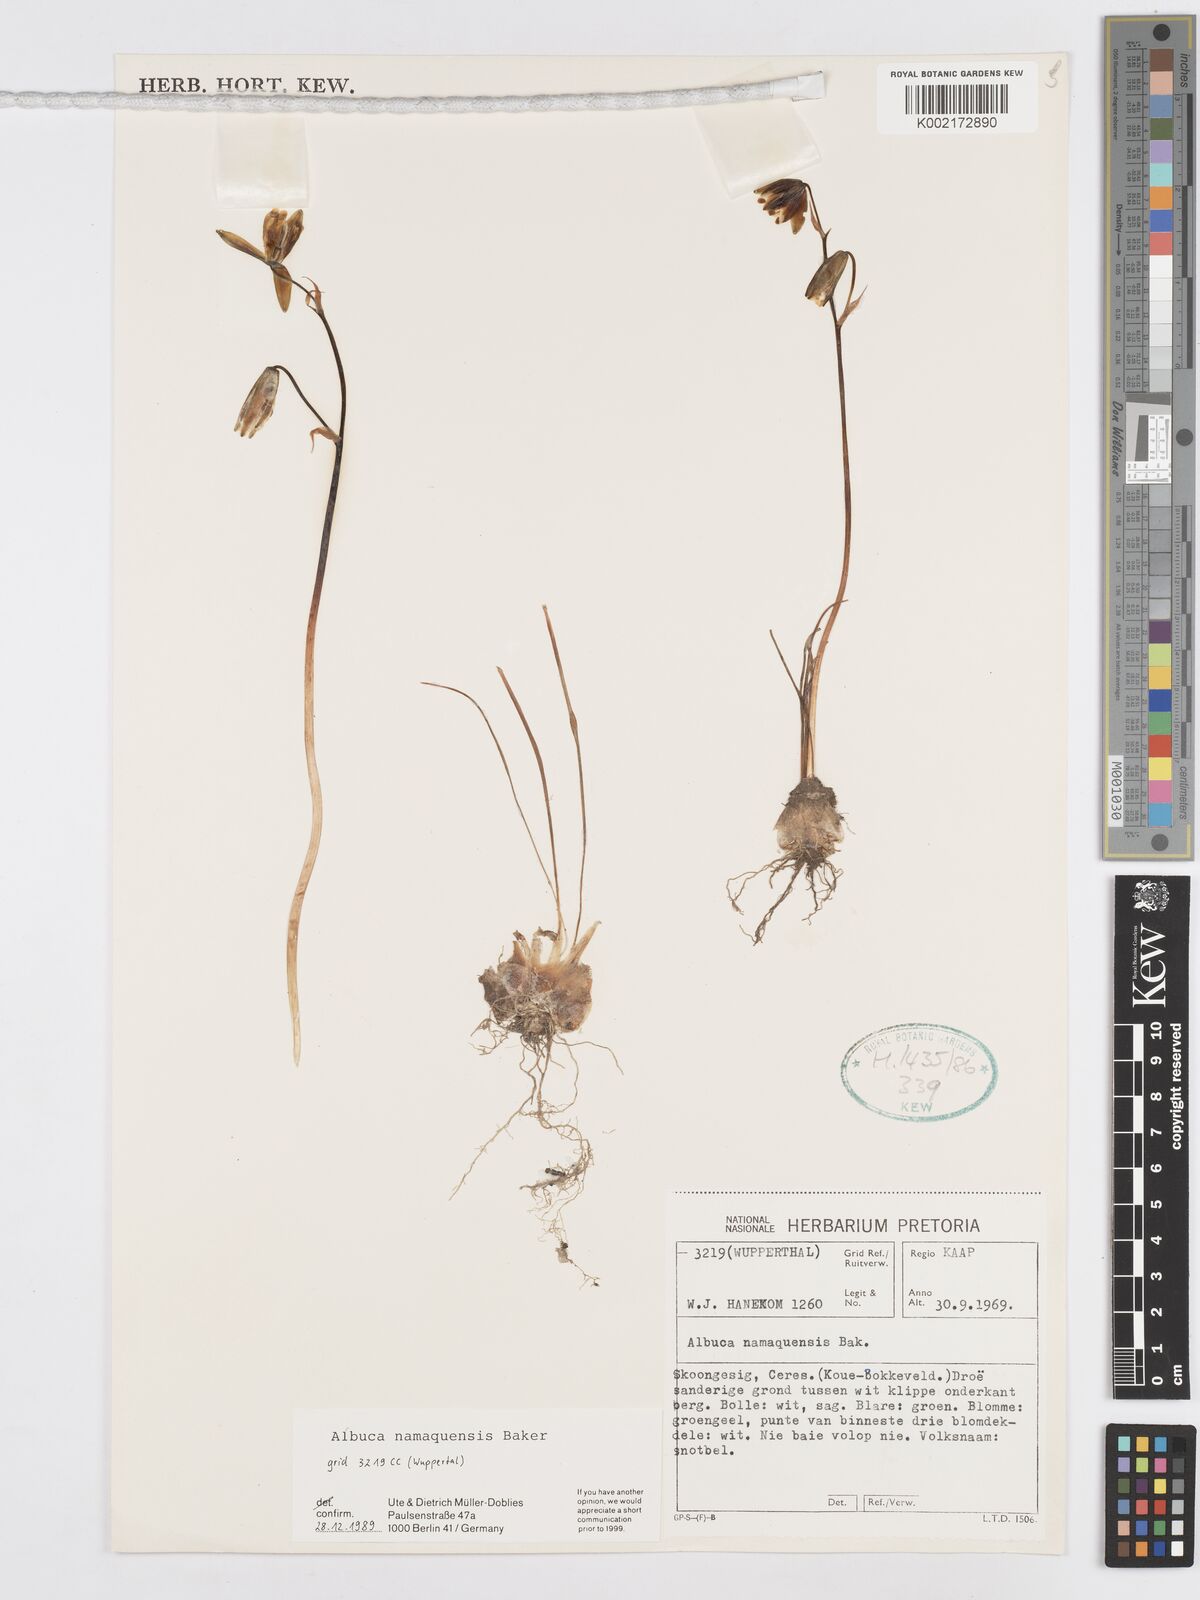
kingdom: Plantae
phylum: Tracheophyta
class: Liliopsida
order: Asparagales
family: Asparagaceae
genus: Albuca
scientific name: Albuca namaquensis
